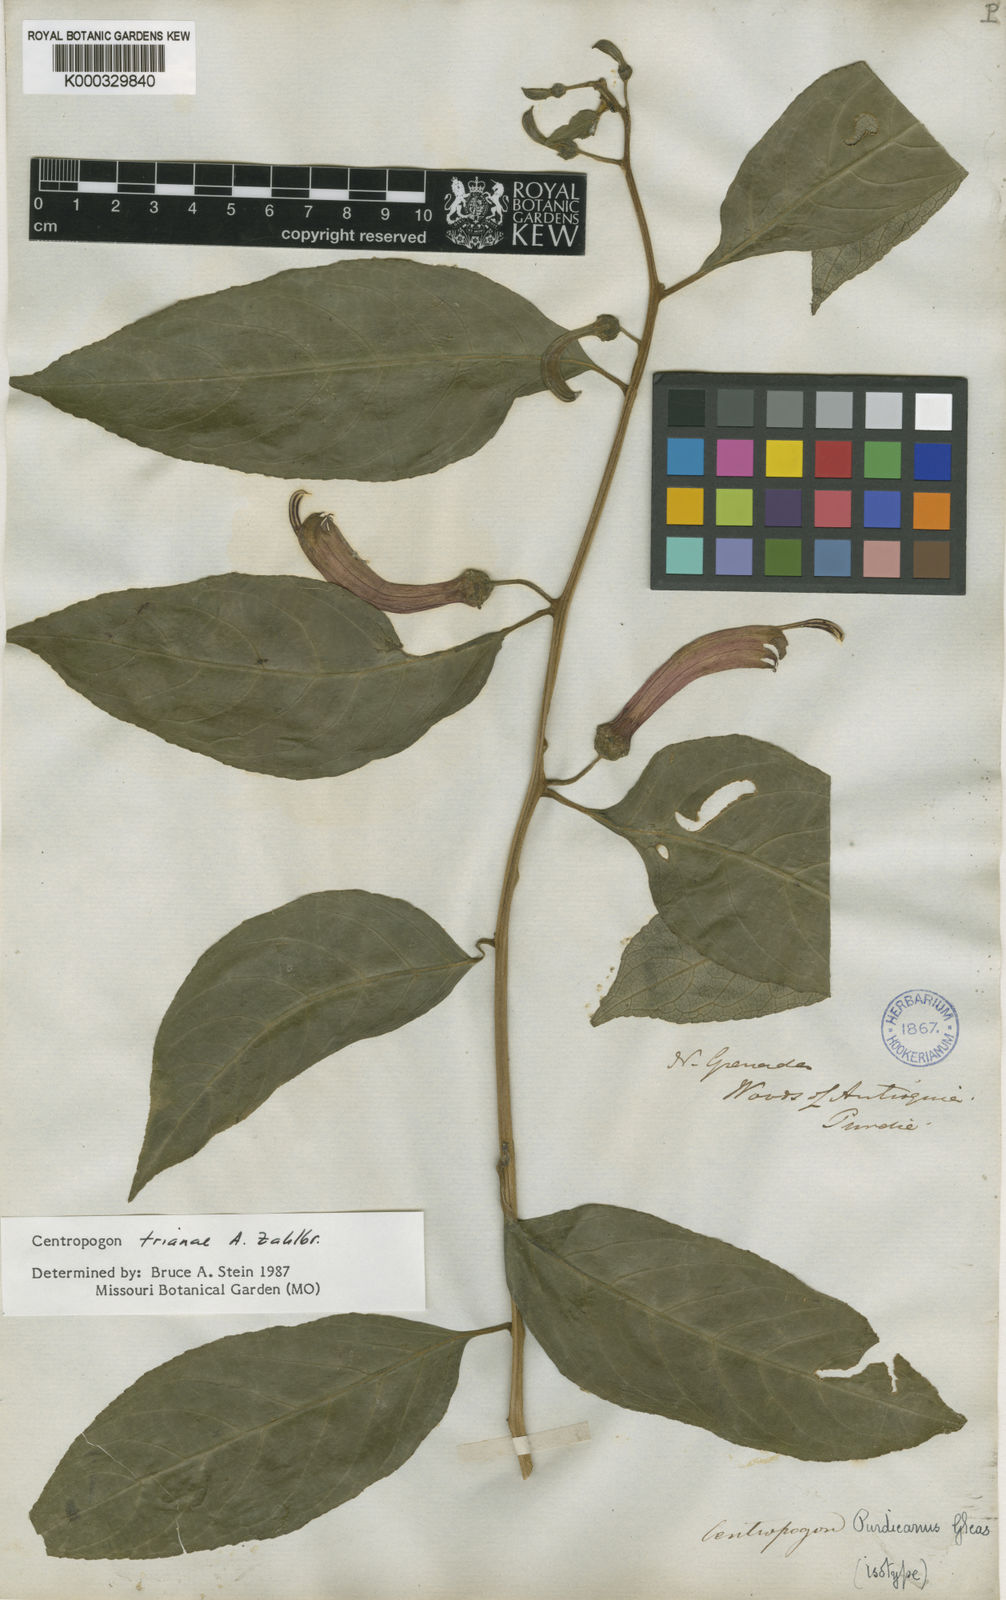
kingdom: Plantae
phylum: Tracheophyta
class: Magnoliopsida
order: Asterales
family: Campanulaceae
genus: Centropogon
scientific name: Centropogon trianae
